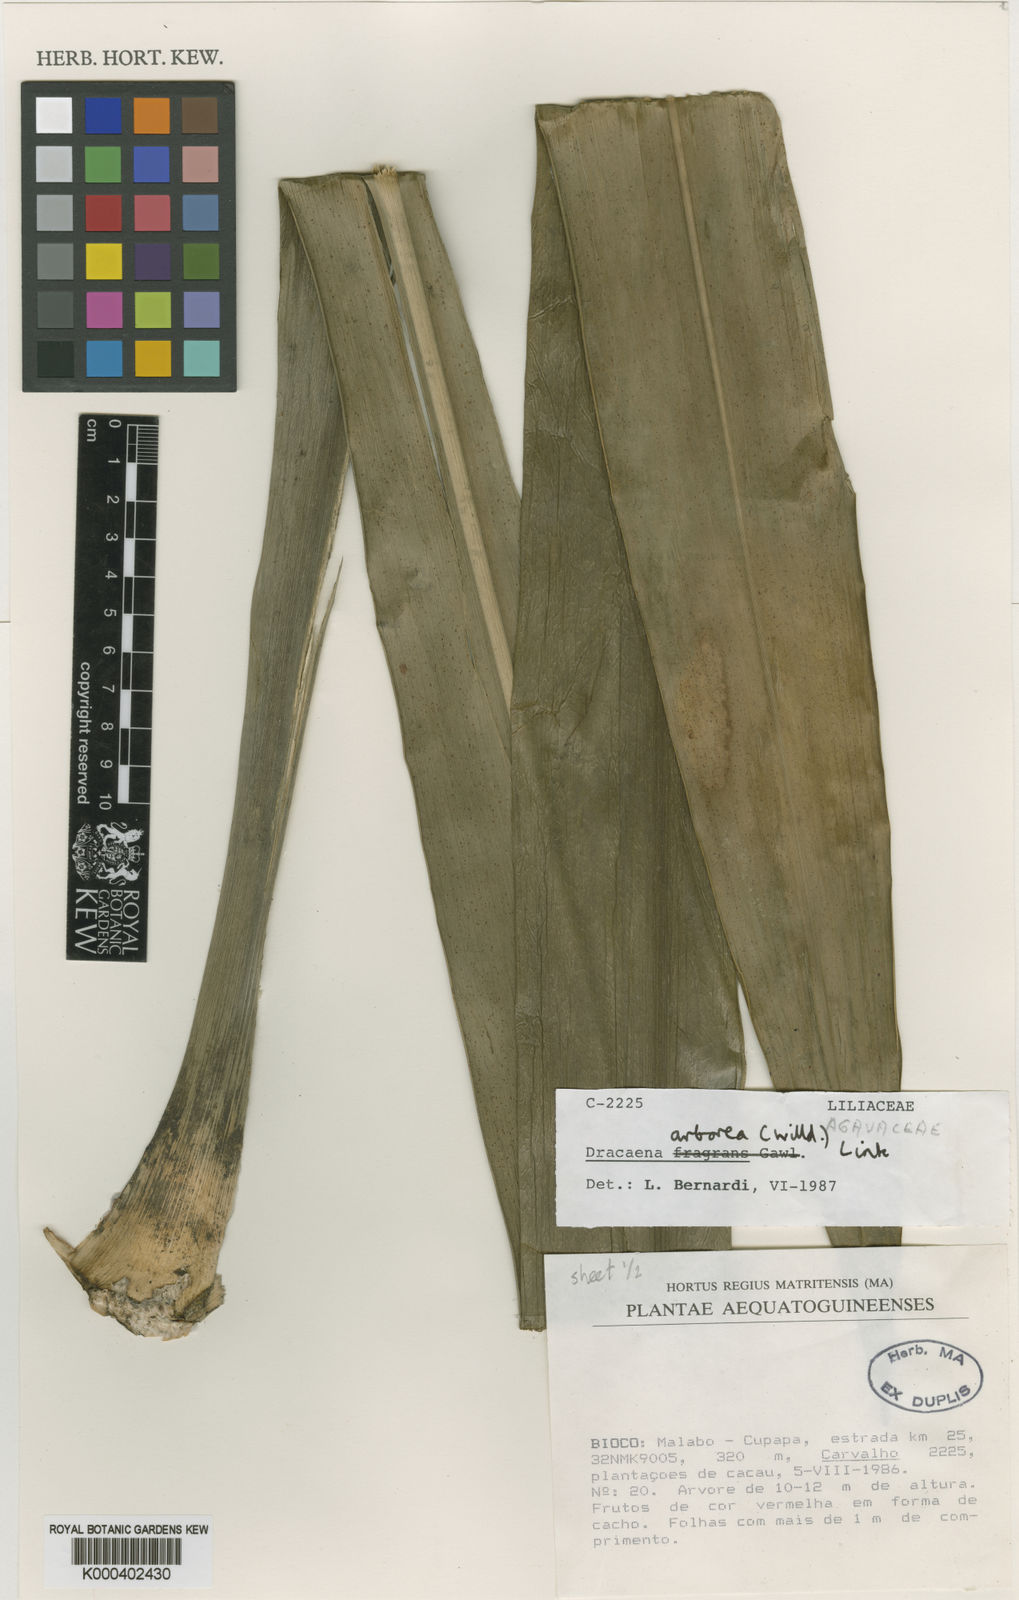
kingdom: Plantae
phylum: Tracheophyta
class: Liliopsida
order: Asparagales
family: Asparagaceae
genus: Dracaena
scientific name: Dracaena arborea
